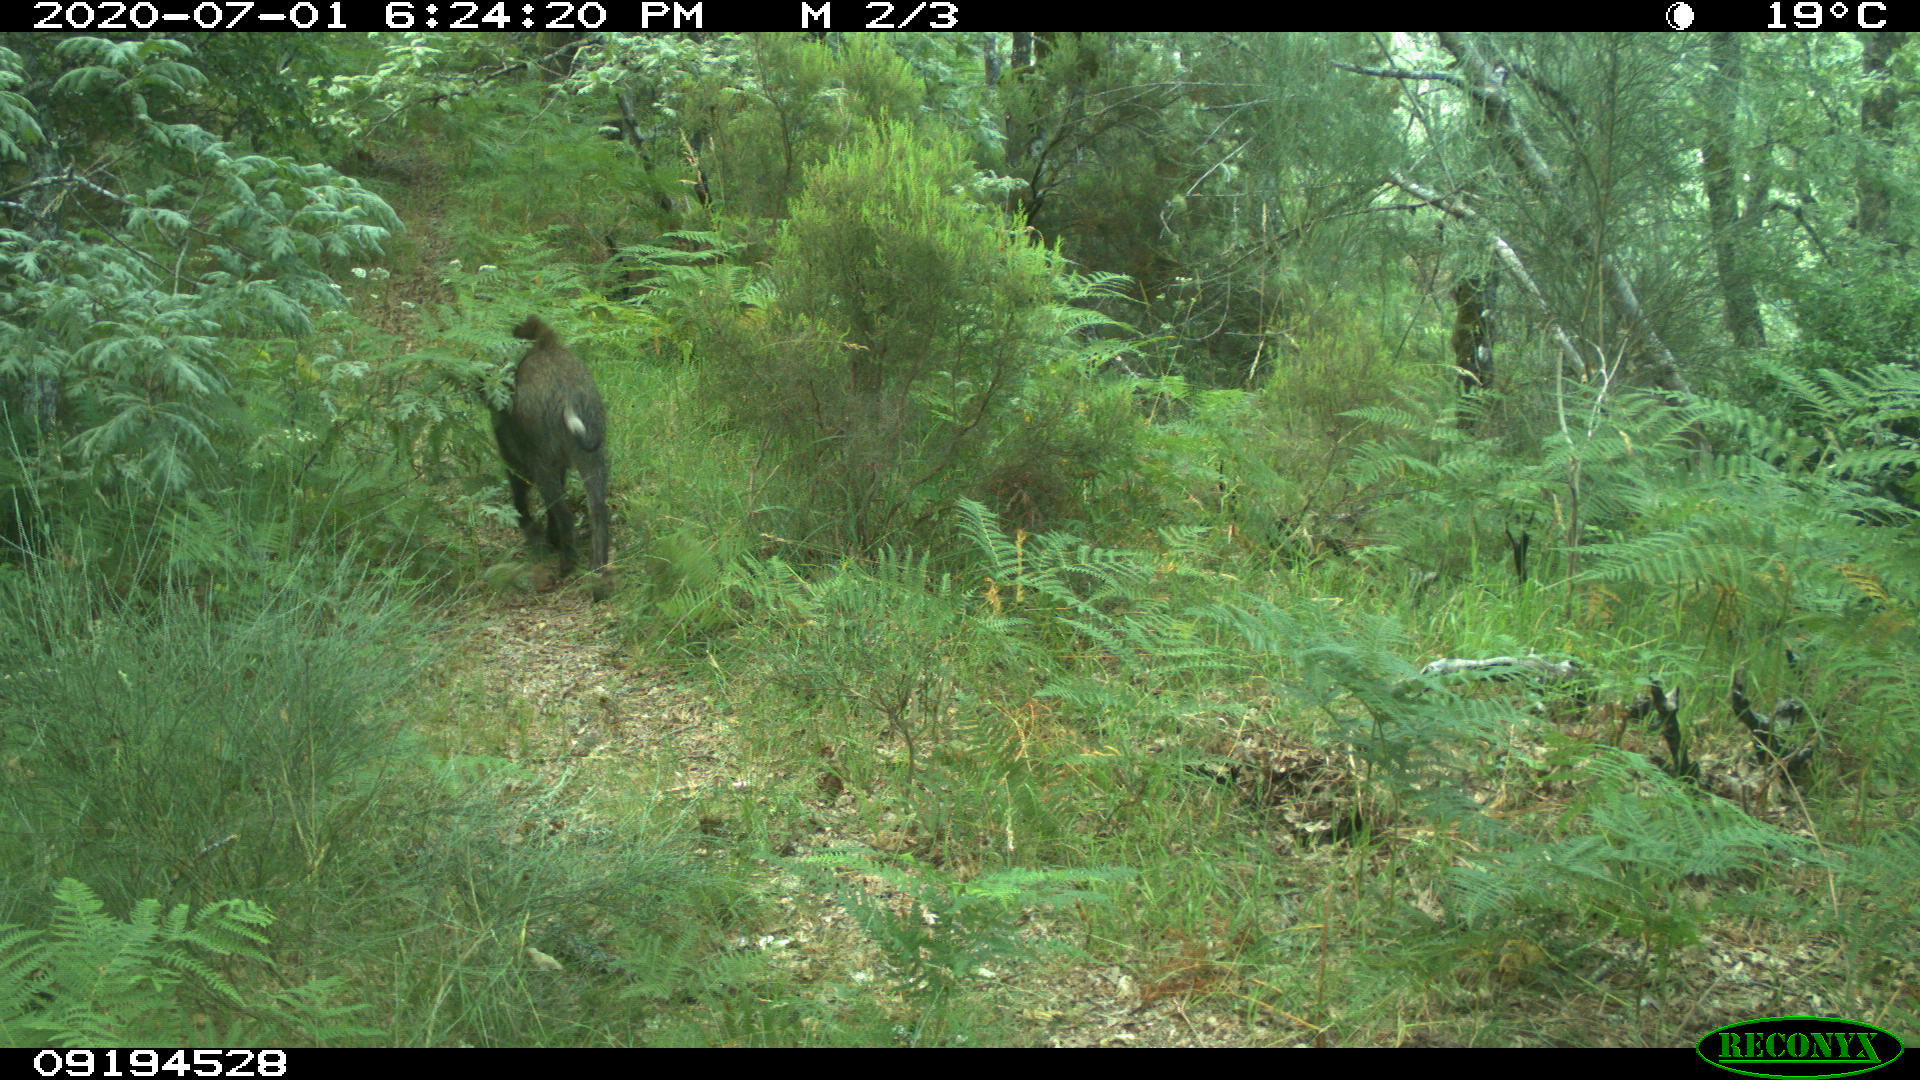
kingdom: Animalia
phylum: Chordata
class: Mammalia
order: Artiodactyla
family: Suidae
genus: Sus
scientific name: Sus scrofa
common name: Wild boar
